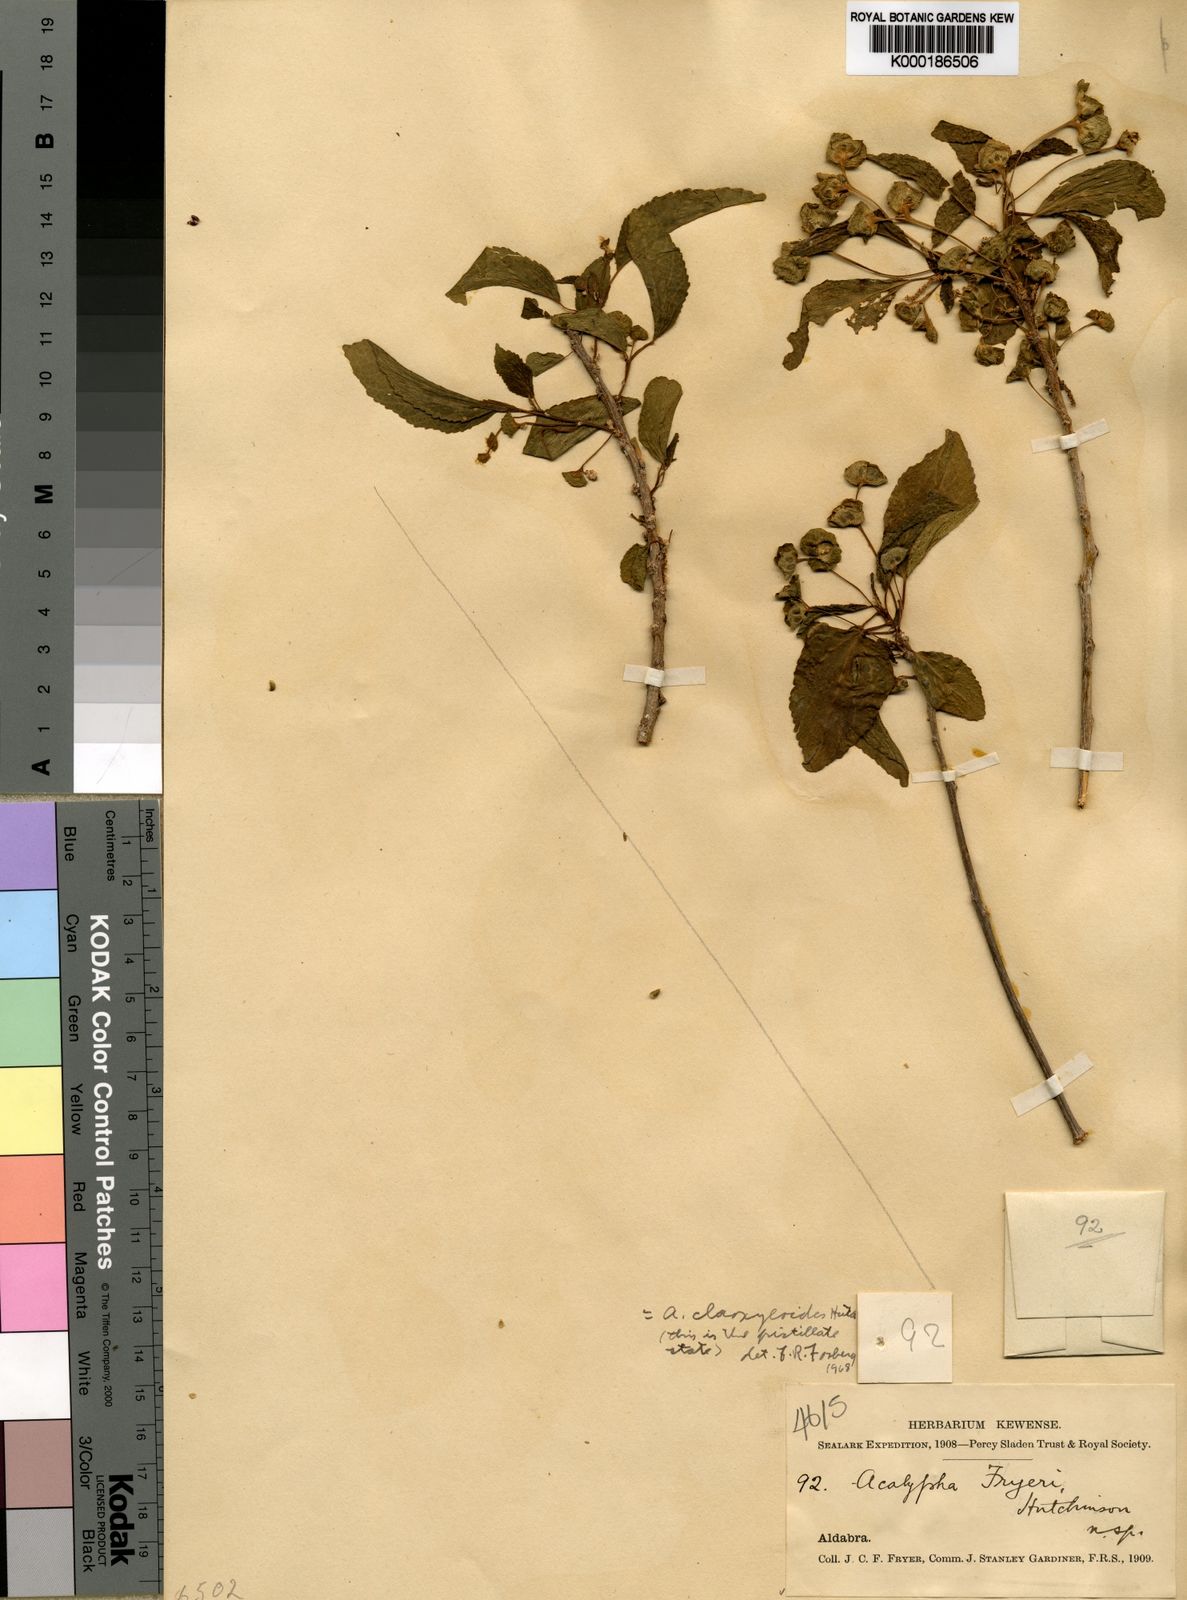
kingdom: Plantae
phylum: Tracheophyta
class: Magnoliopsida
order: Malpighiales
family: Euphorbiaceae
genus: Acalypha
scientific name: Acalypha claoxyloides
